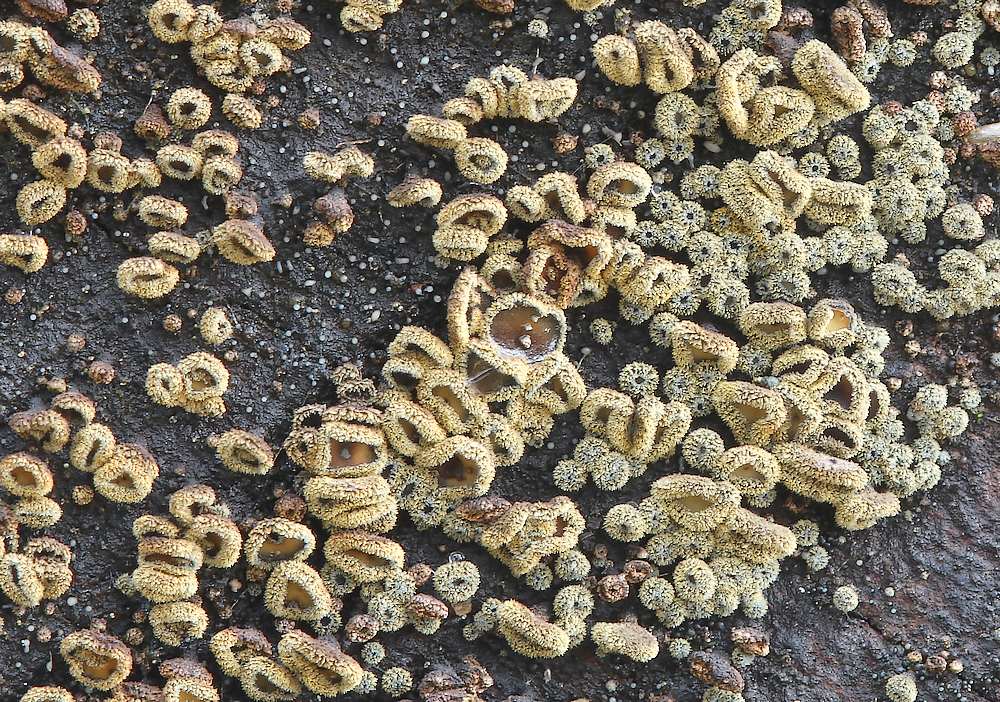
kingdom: Fungi
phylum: Ascomycota
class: Leotiomycetes
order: Helotiales
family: Lachnaceae
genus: Neodasyscypha
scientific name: Neodasyscypha cerina
